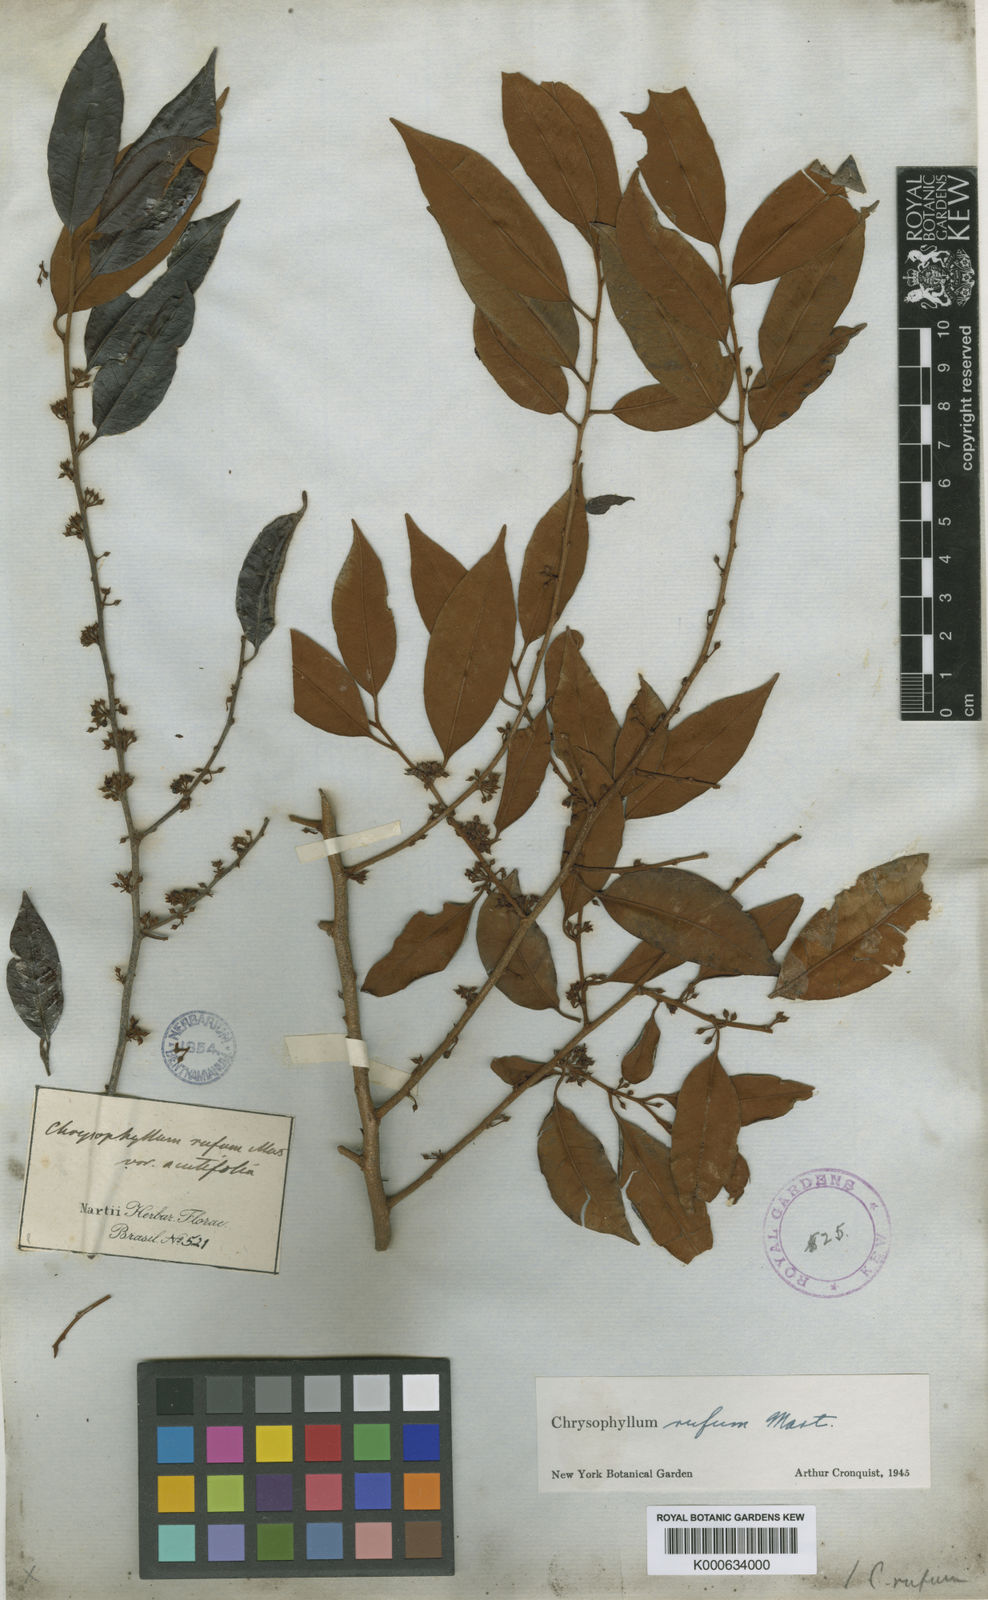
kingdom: Plantae
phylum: Tracheophyta
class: Magnoliopsida
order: Ericales
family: Sapotaceae
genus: Chrysophyllum
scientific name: Chrysophyllum rufum
